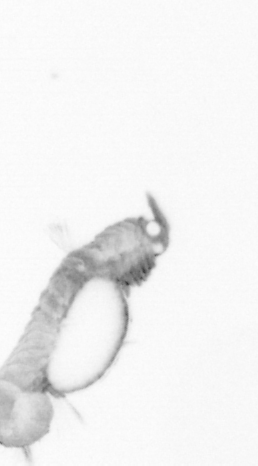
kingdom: Animalia
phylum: Annelida
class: Polychaeta
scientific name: Polychaeta
